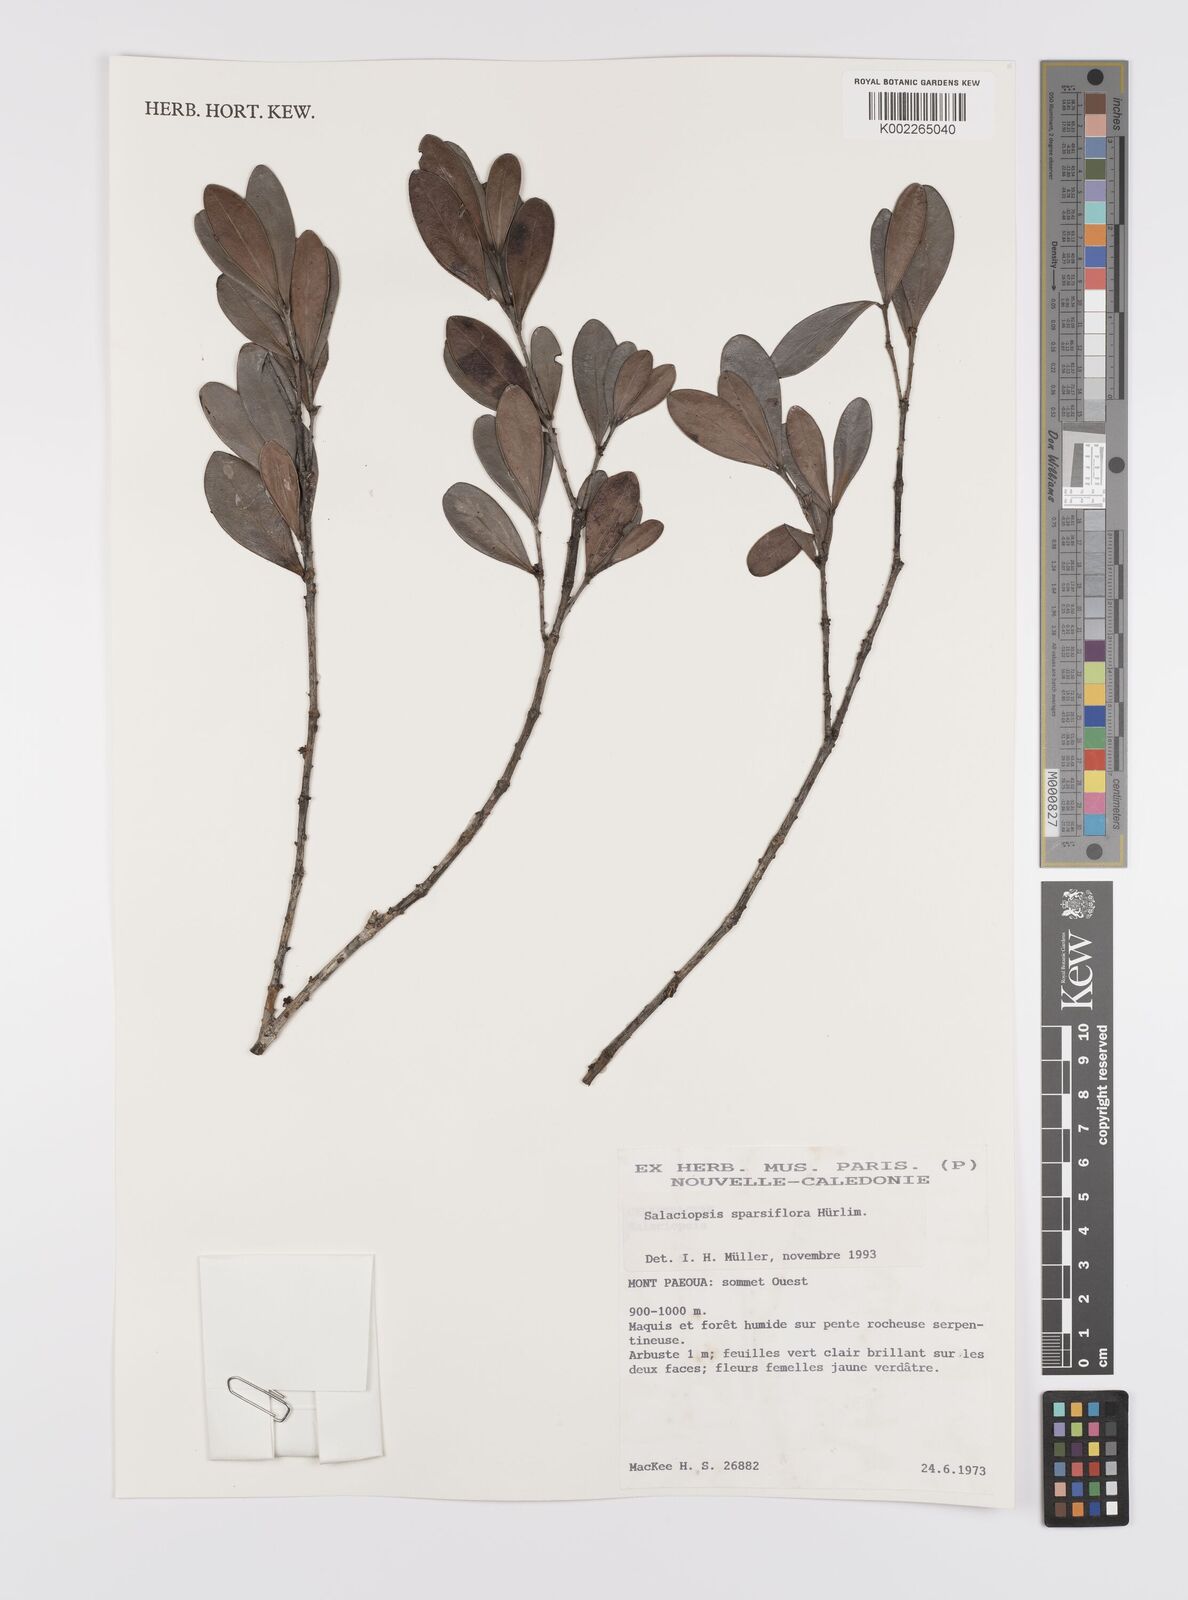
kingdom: Plantae
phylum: Tracheophyta
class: Magnoliopsida
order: Celastrales
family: Celastraceae
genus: Salaciopsis
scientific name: Salaciopsis sparsiflora
